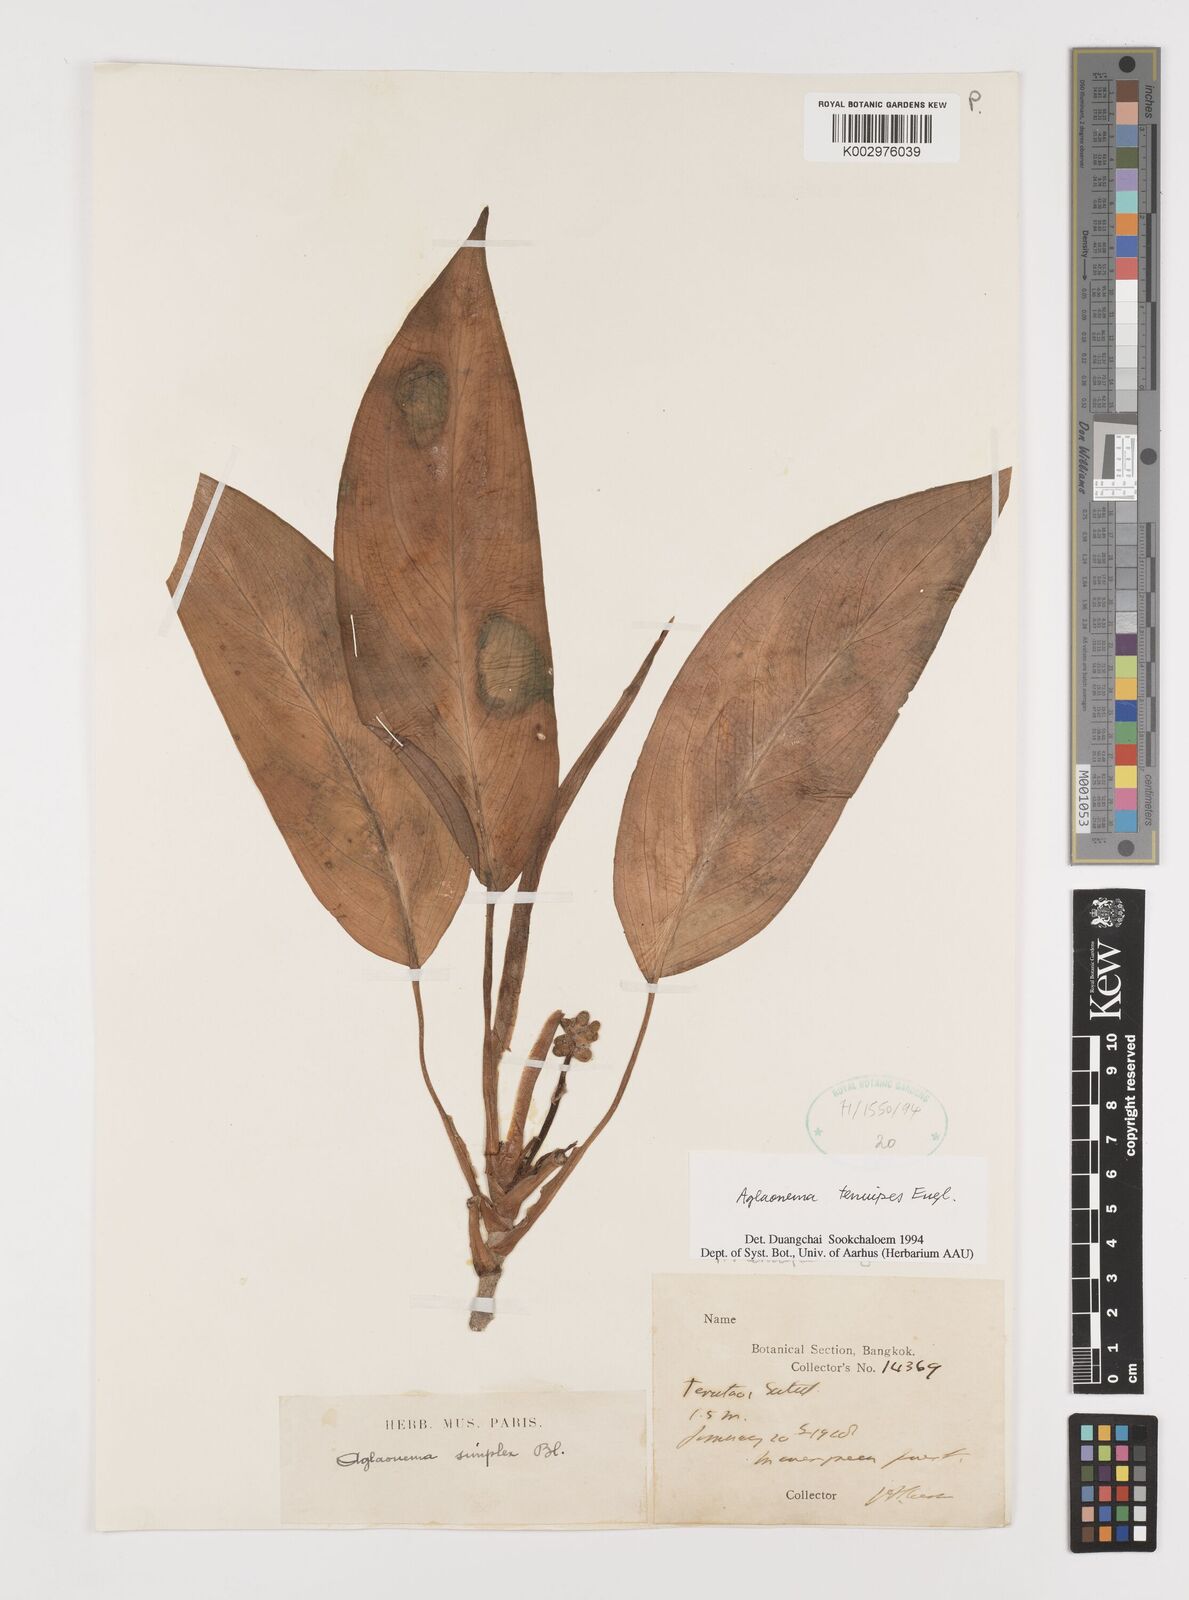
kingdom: Plantae
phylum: Tracheophyta
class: Liliopsida
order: Alismatales
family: Araceae
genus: Aglaonema
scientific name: Aglaonema simplex
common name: Malayan-sword
